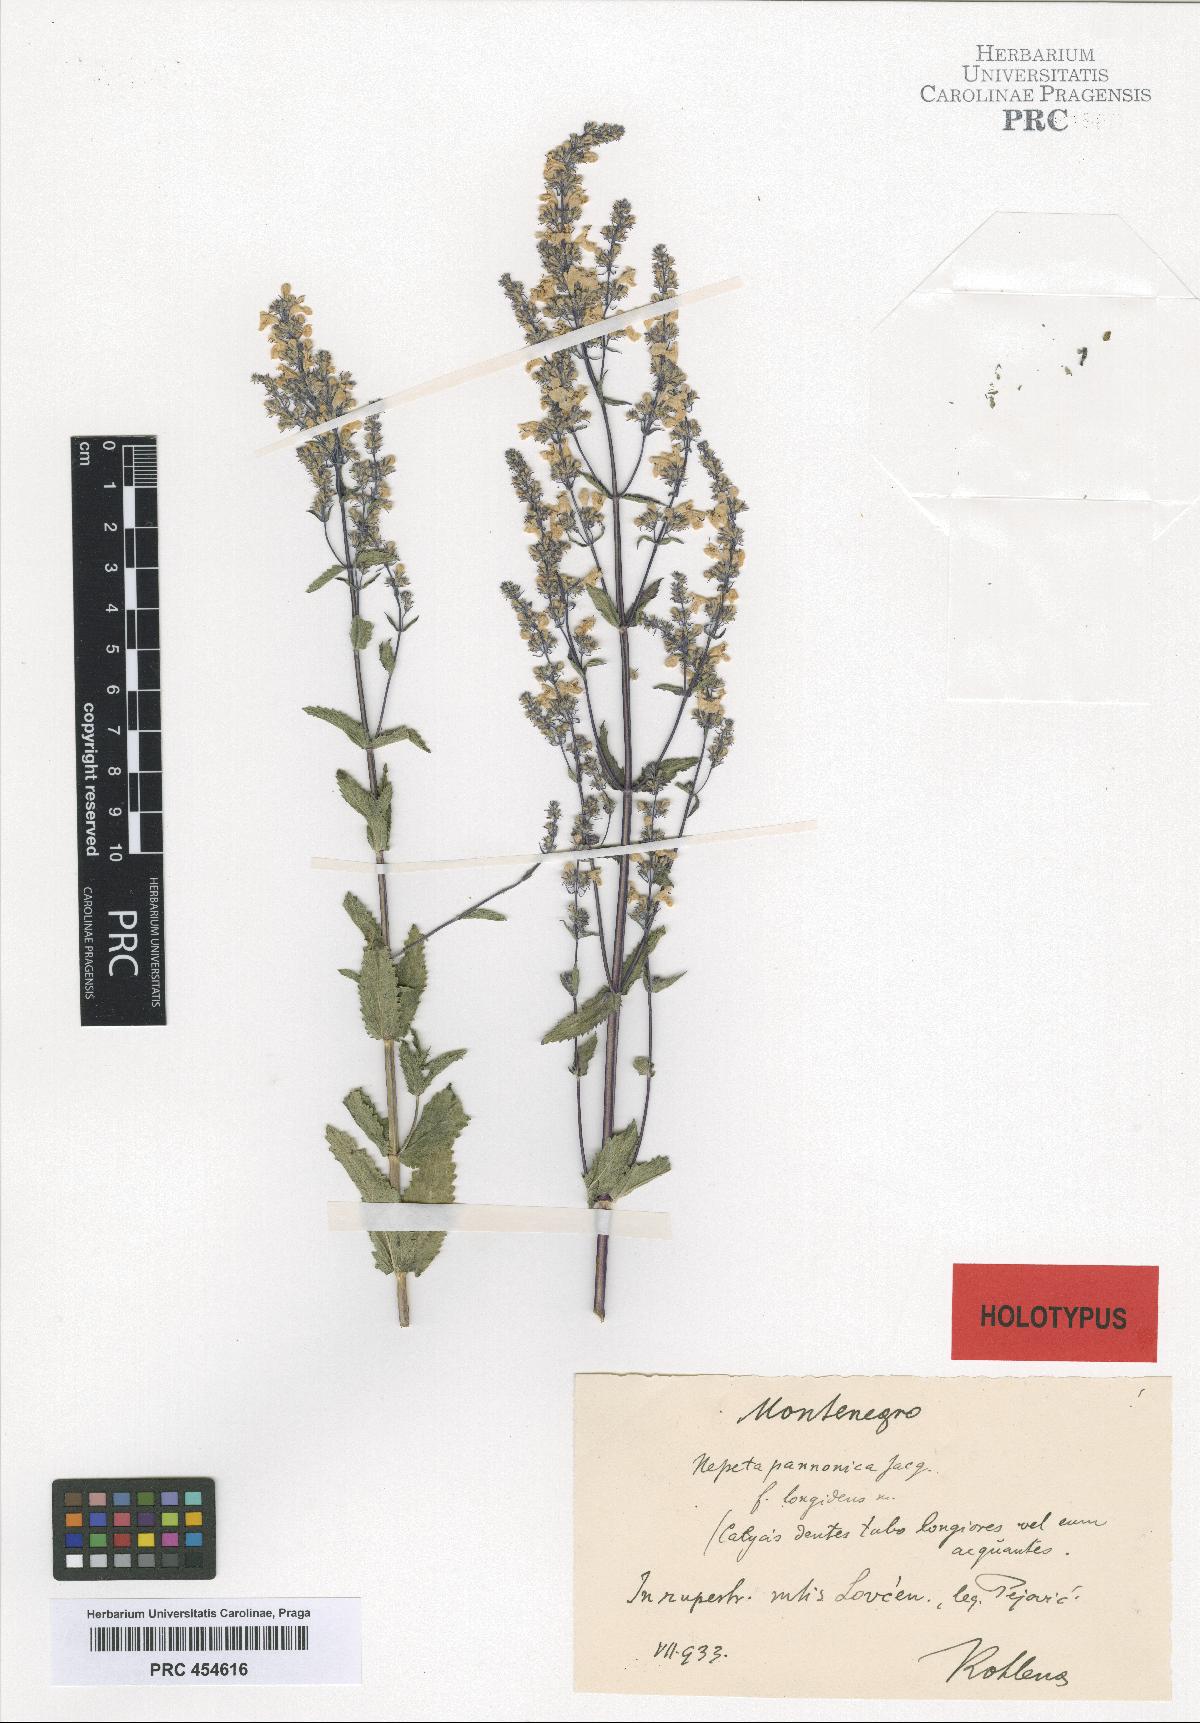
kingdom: Plantae
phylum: Tracheophyta
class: Magnoliopsida
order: Lamiales
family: Lamiaceae
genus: Nepeta
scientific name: Nepeta nuda
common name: Hairless catmint
